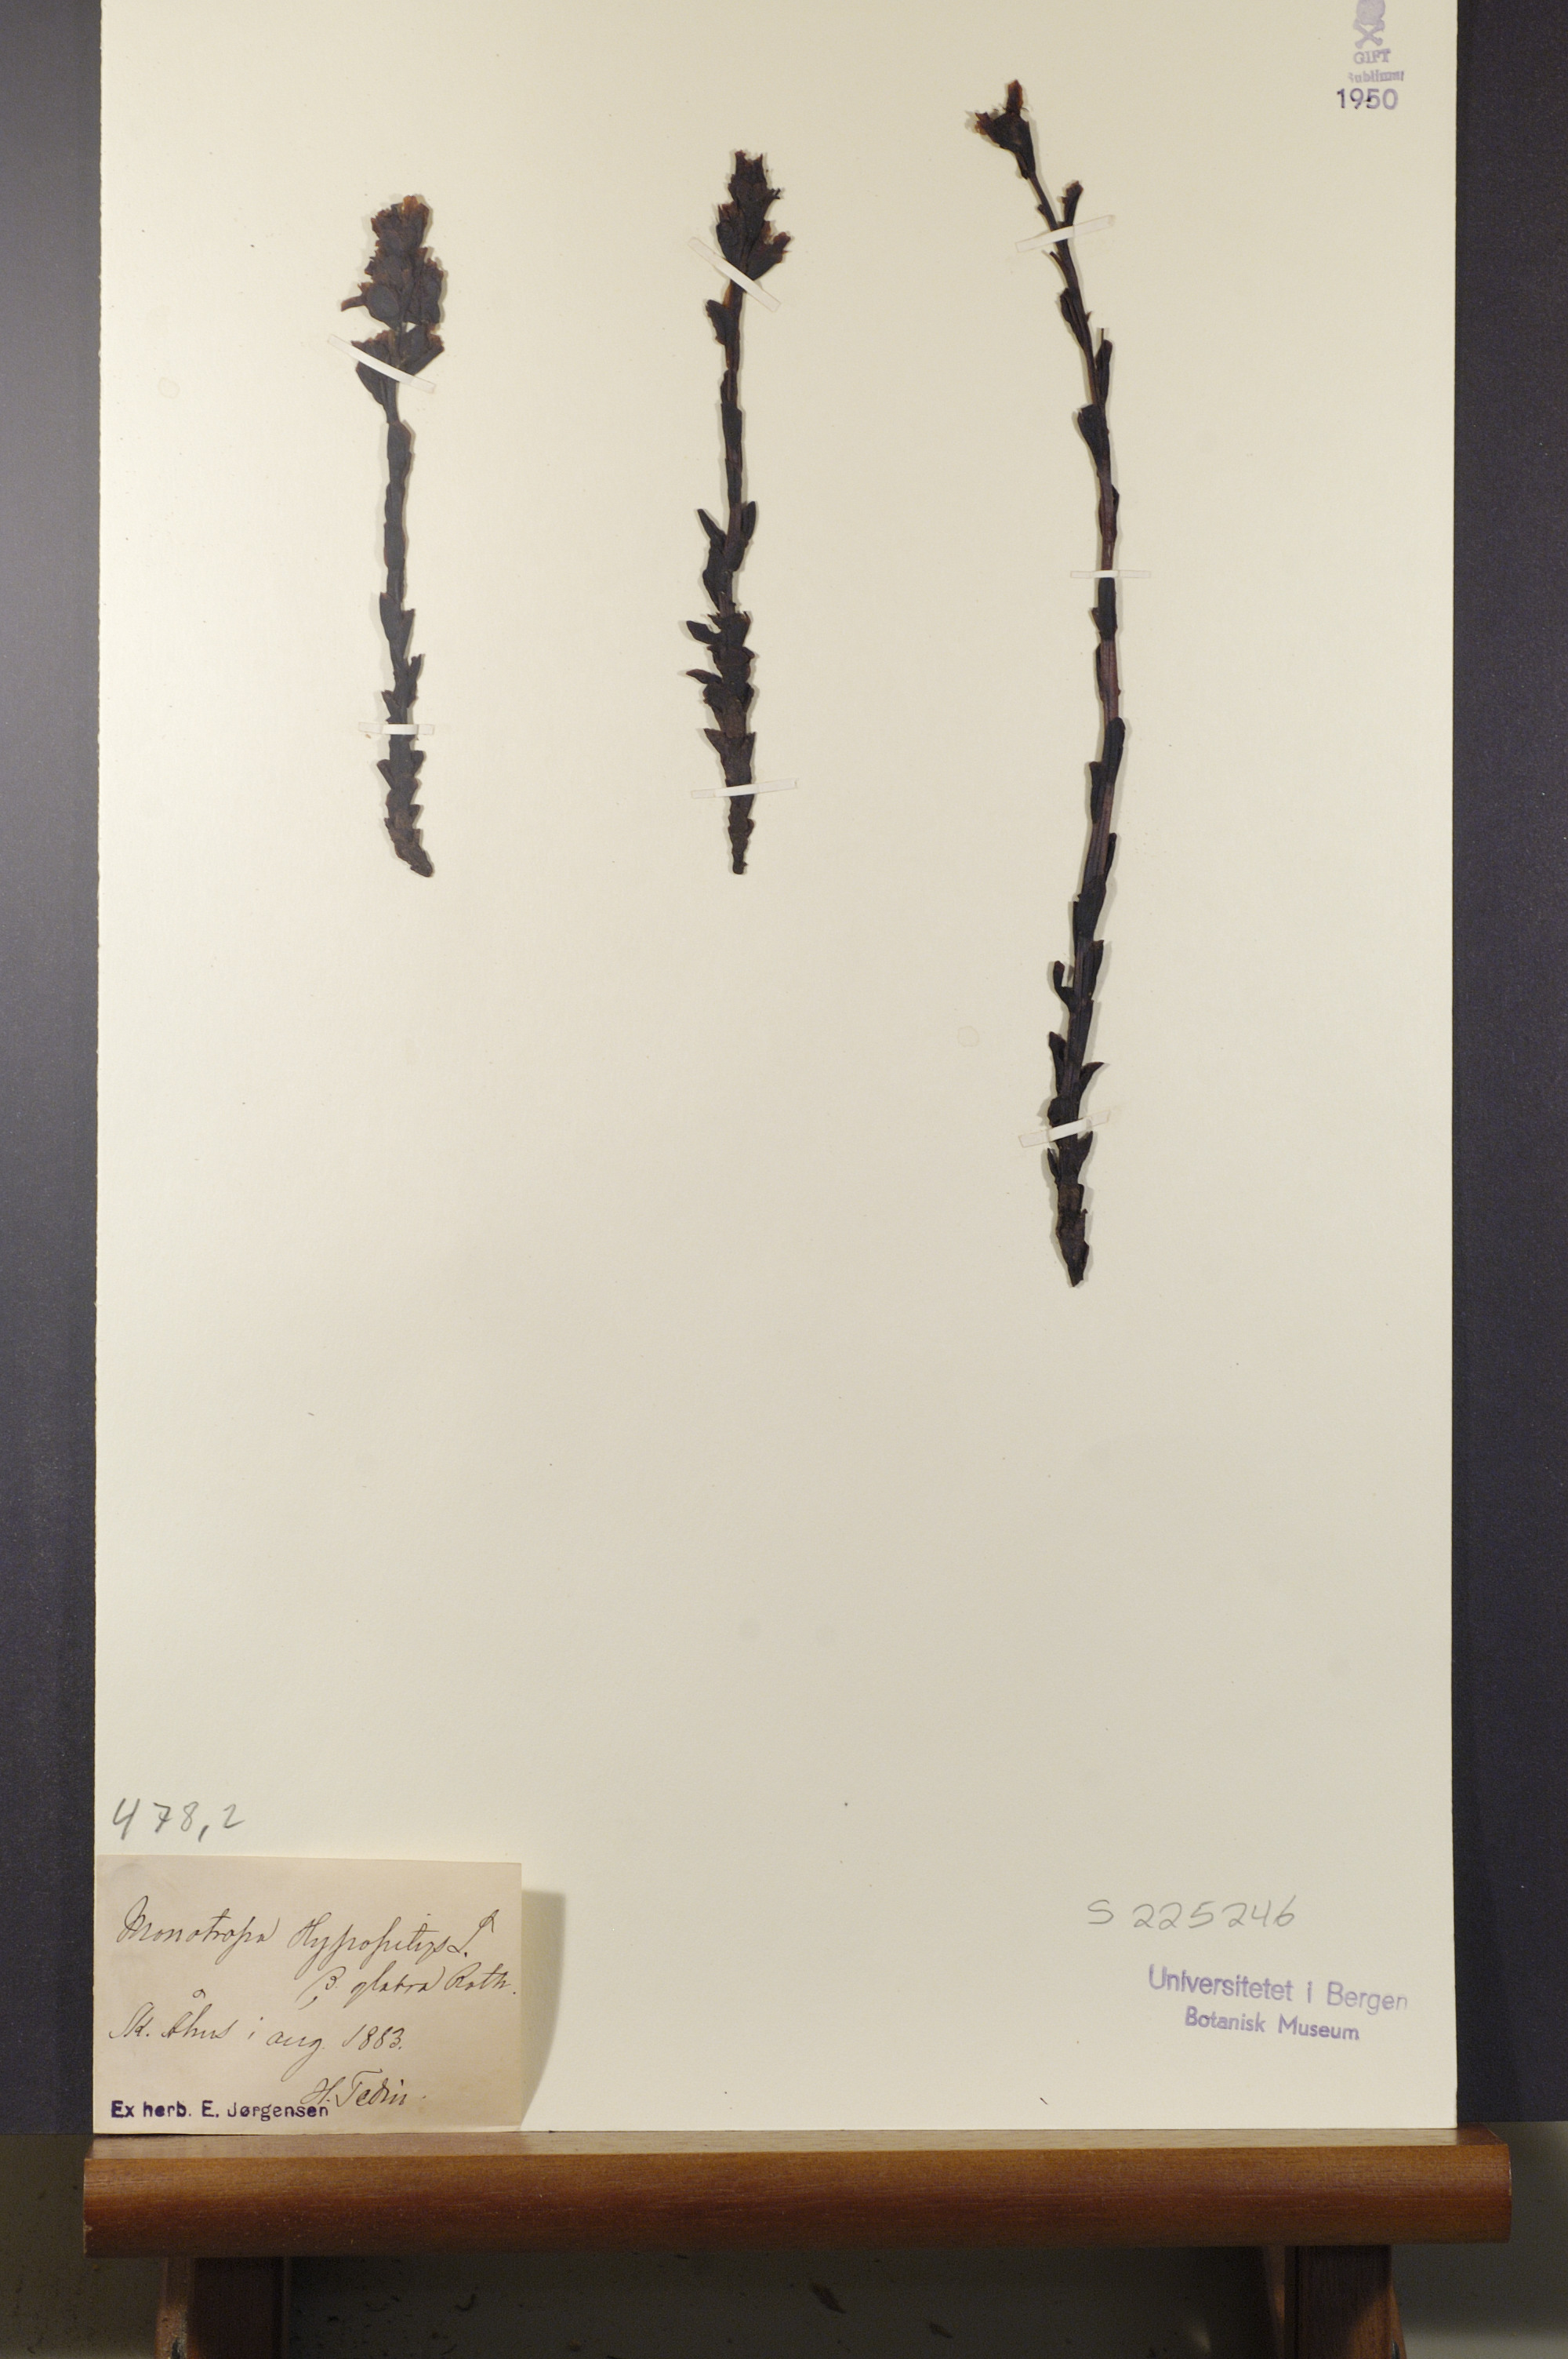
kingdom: Plantae
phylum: Tracheophyta
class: Magnoliopsida
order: Ericales
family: Ericaceae
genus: Hypopitys
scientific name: Hypopitys hypophegea
